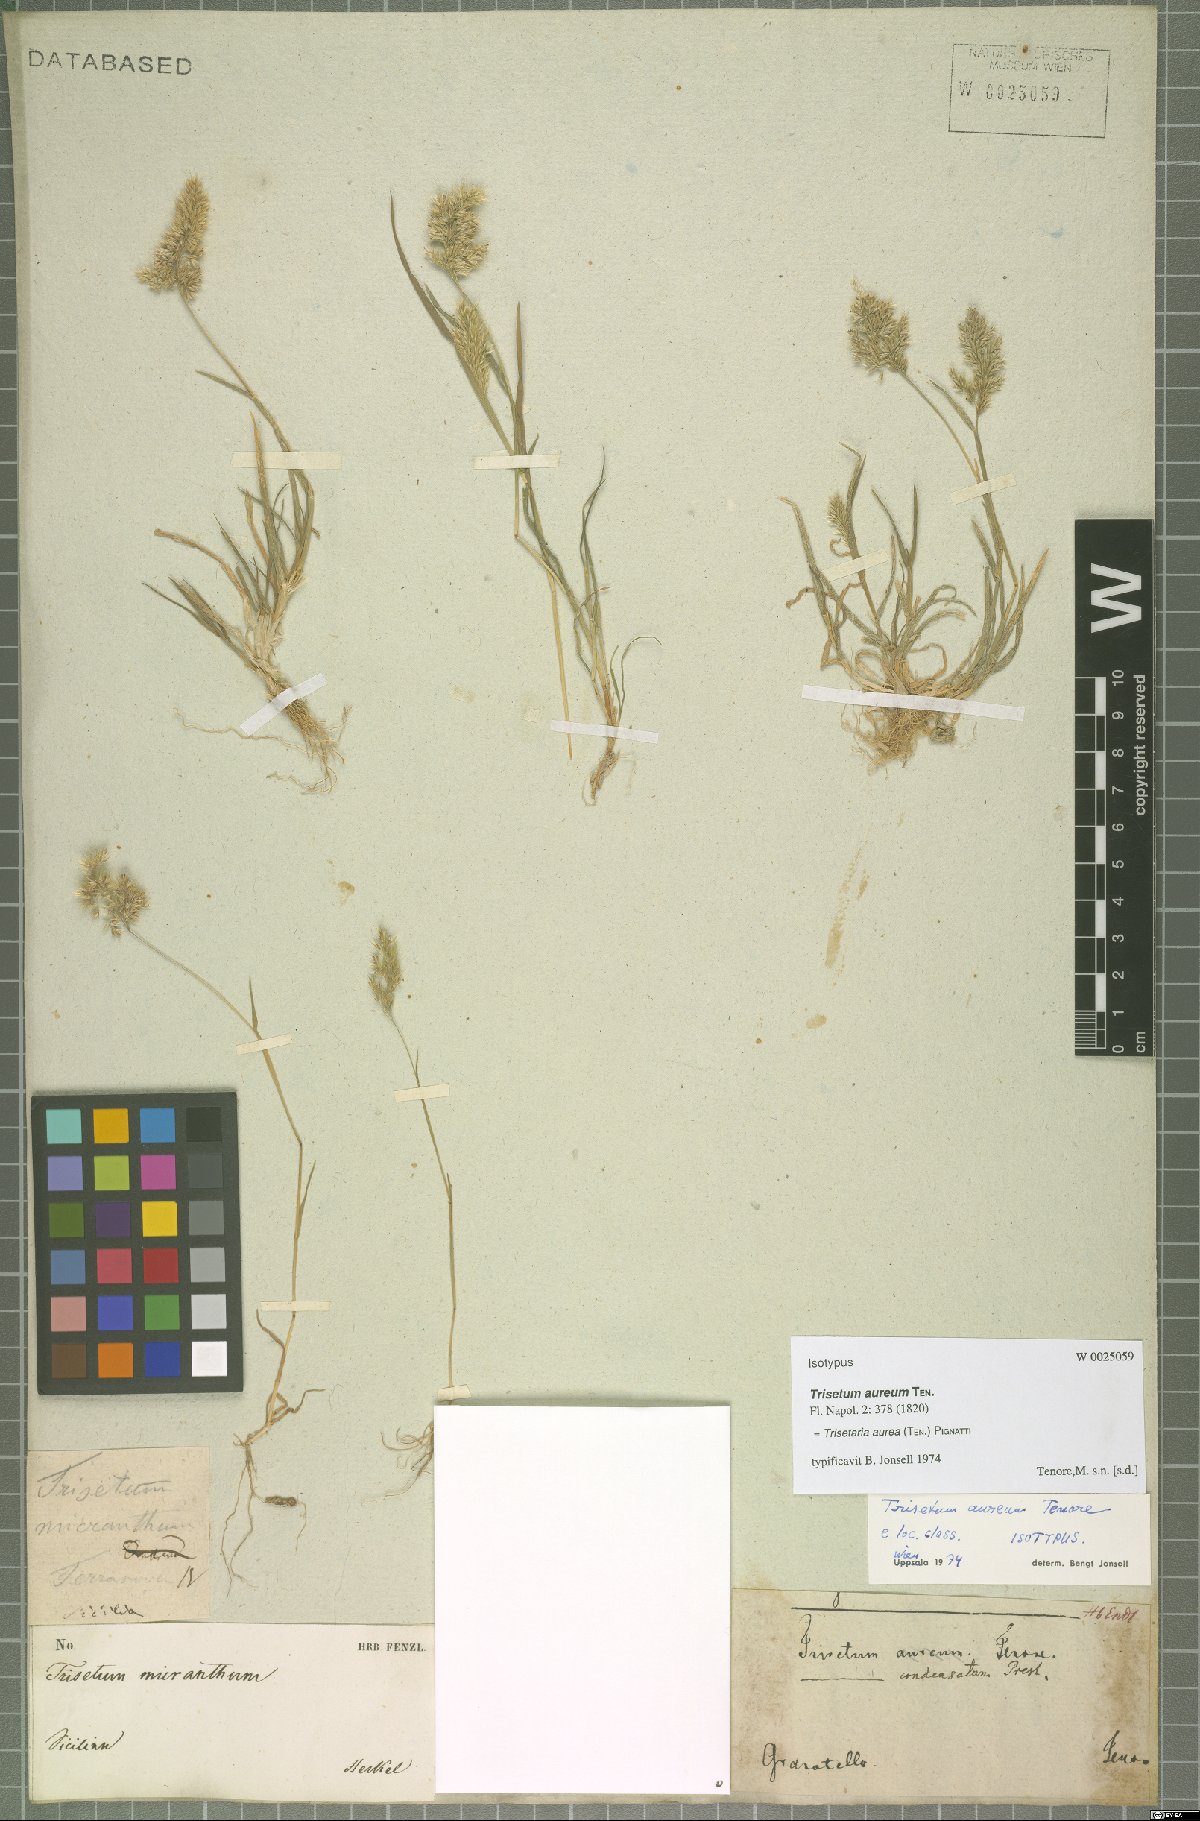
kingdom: Plantae
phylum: Tracheophyta
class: Liliopsida
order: Poales
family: Poaceae
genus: Trisetaria
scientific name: Trisetaria aurea
